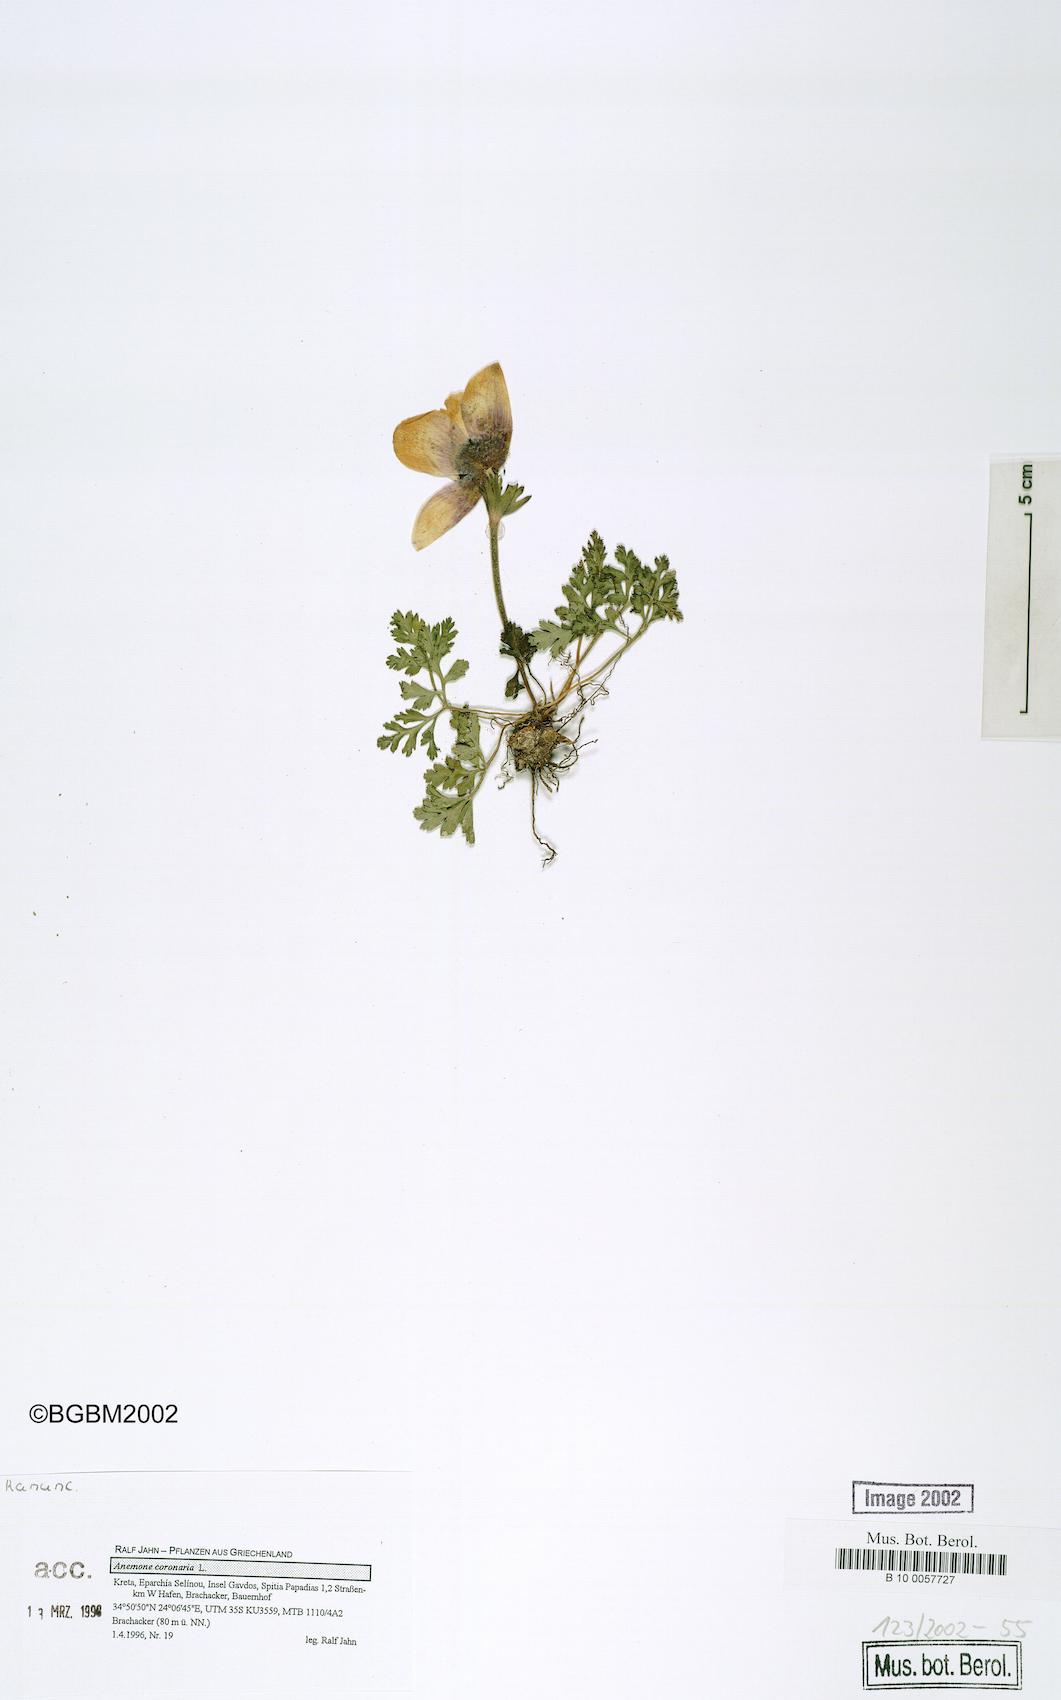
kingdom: Plantae
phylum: Tracheophyta
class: Magnoliopsida
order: Ranunculales
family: Ranunculaceae
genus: Anemone
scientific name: Anemone coronaria
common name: Poppy anemone
